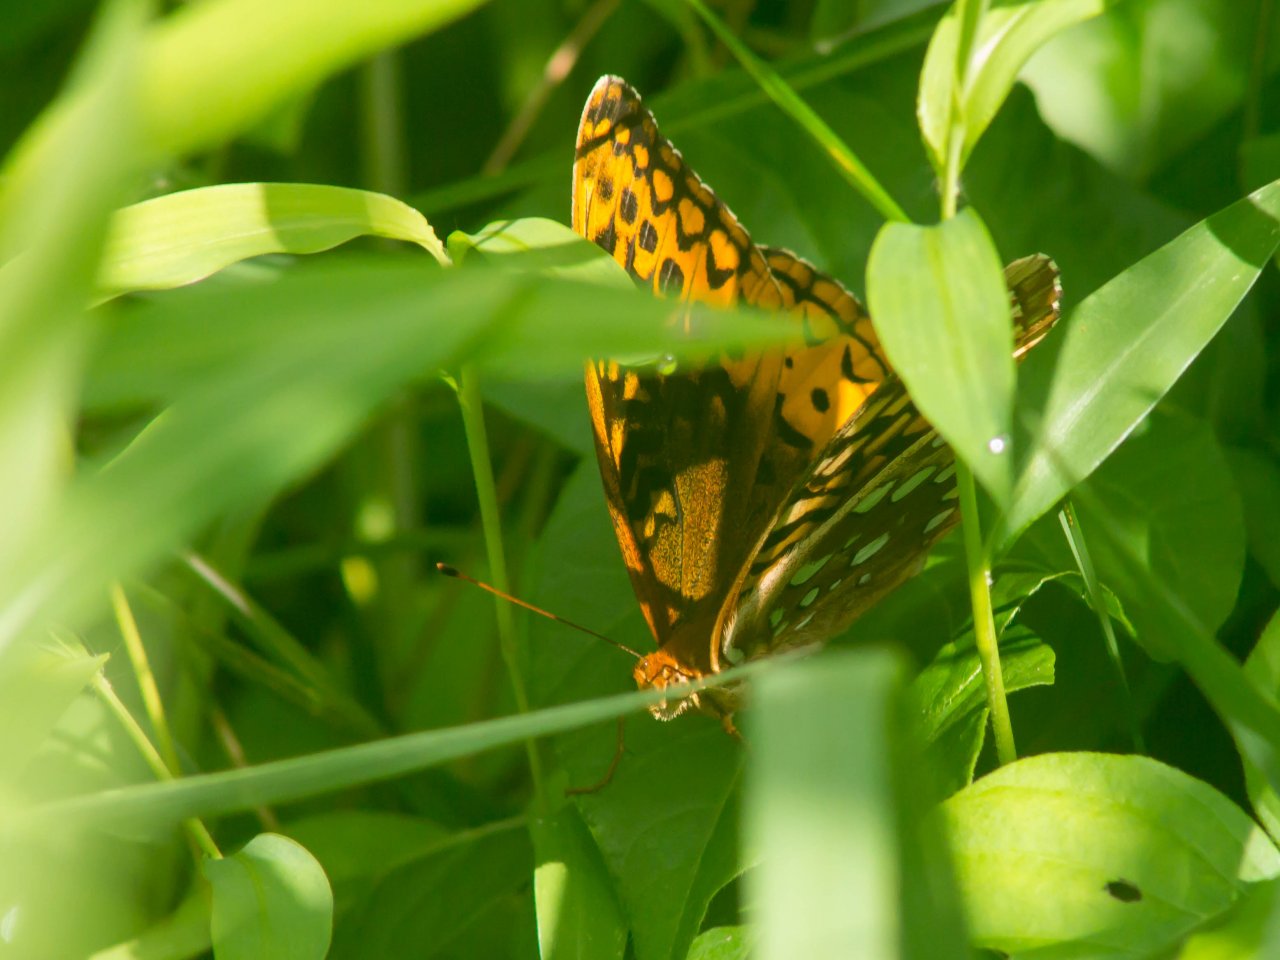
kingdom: Animalia
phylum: Arthropoda
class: Insecta
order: Lepidoptera
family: Nymphalidae
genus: Speyeria
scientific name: Speyeria cybele
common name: Great Spangled Fritillary
